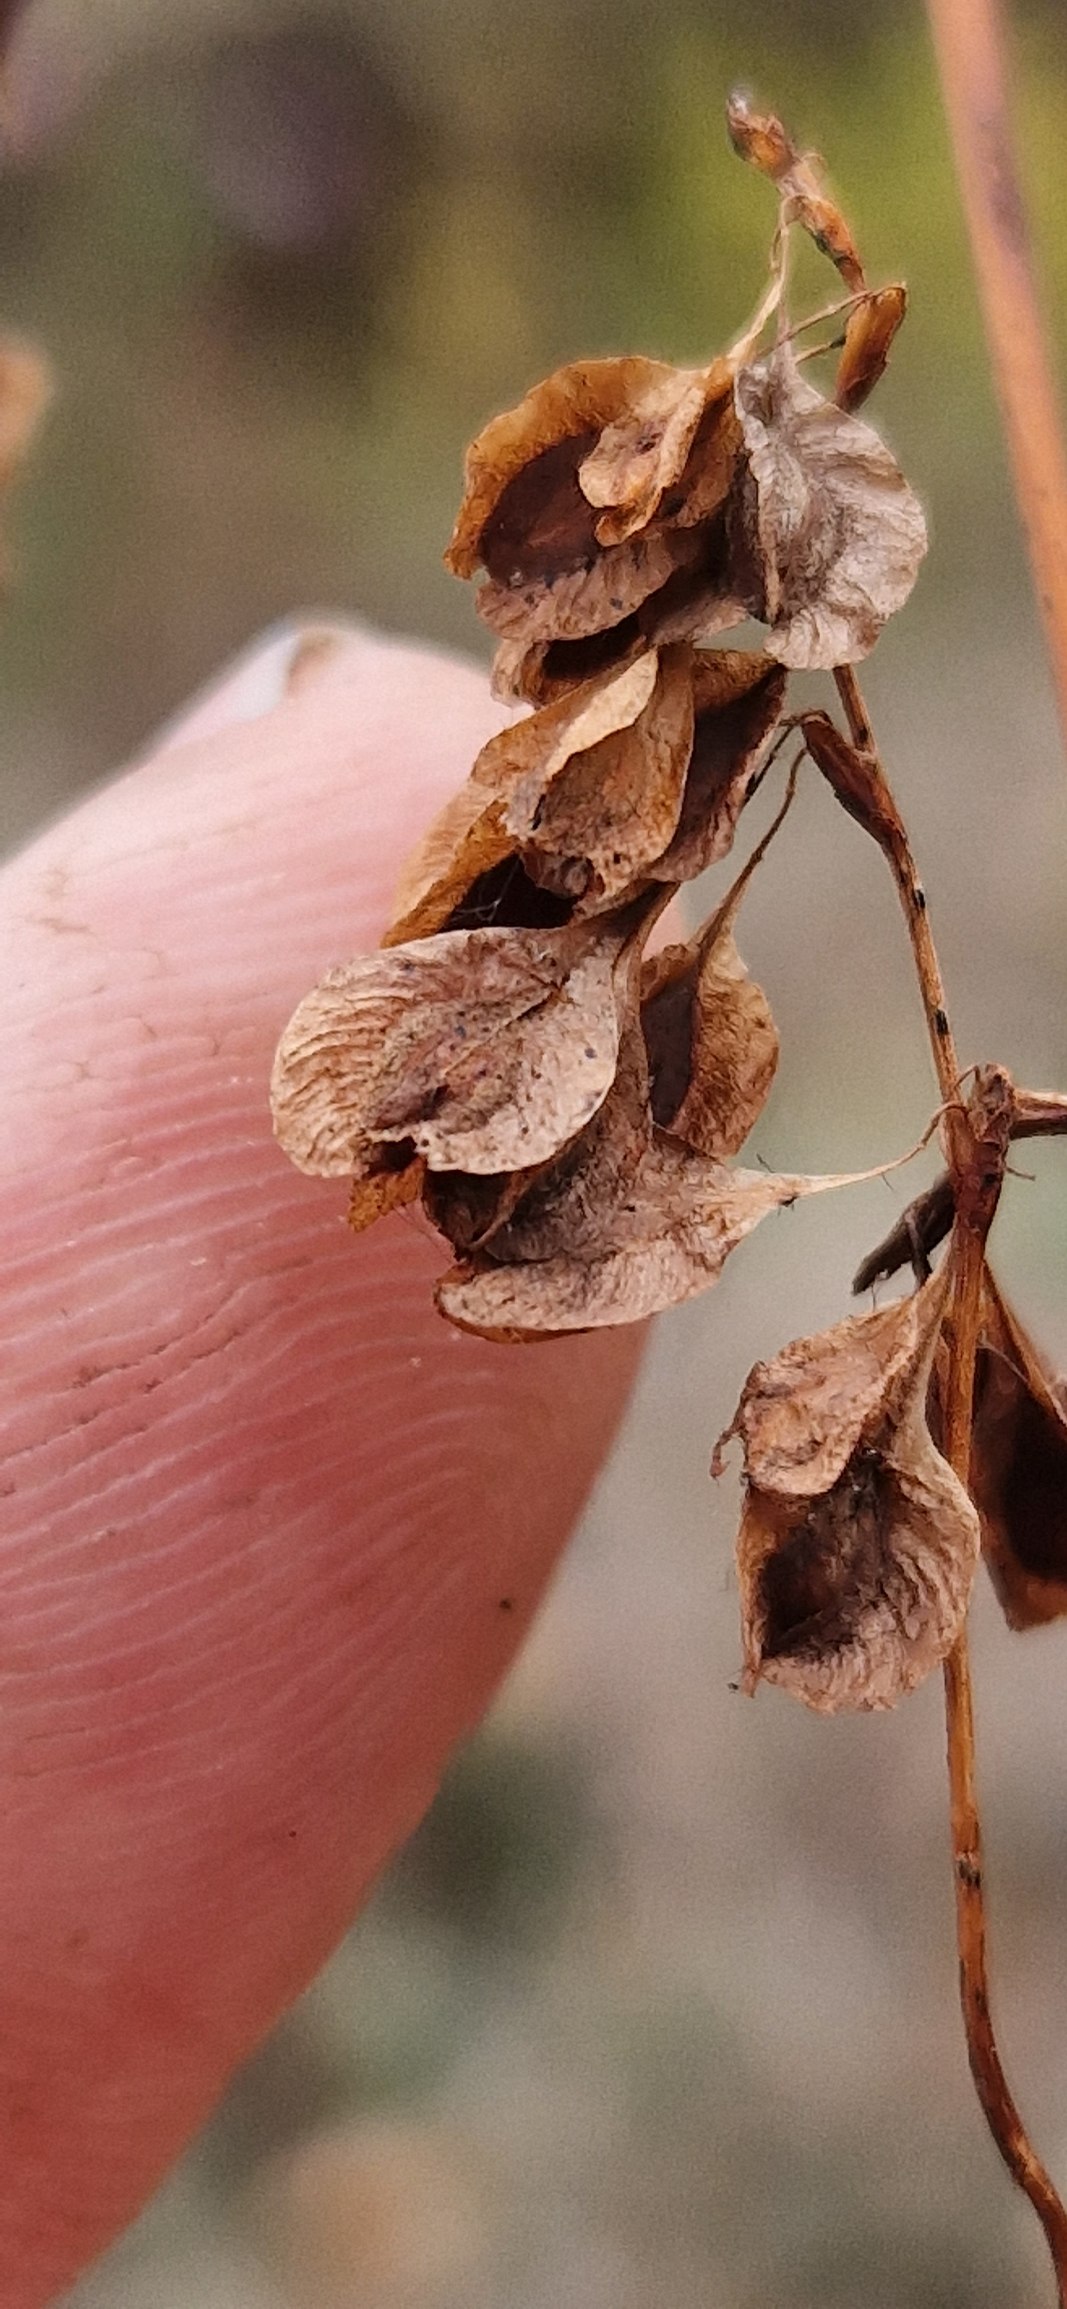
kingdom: Plantae
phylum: Tracheophyta
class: Magnoliopsida
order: Caryophyllales
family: Polygonaceae
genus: Fallopia
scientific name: Fallopia dumetorum
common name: Vinge-pileurt
